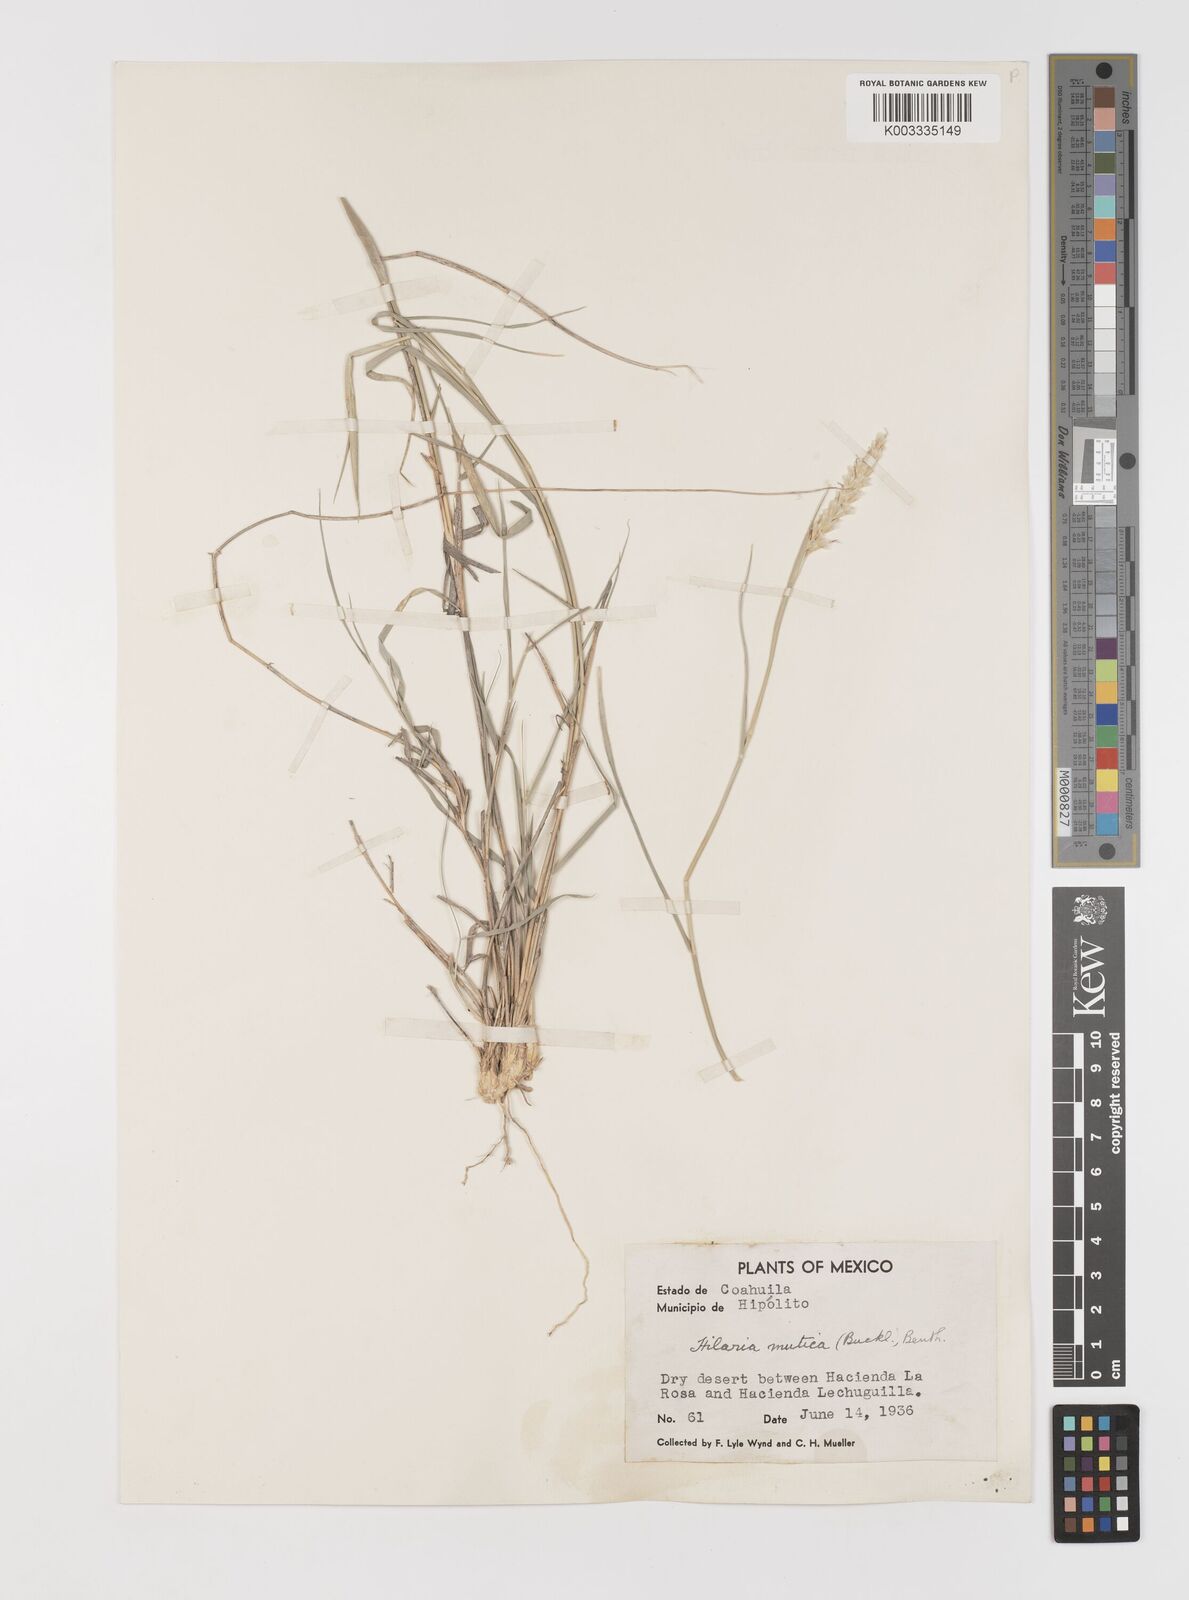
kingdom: Plantae
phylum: Tracheophyta
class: Liliopsida
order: Poales
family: Poaceae
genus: Hilaria
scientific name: Hilaria mutica
